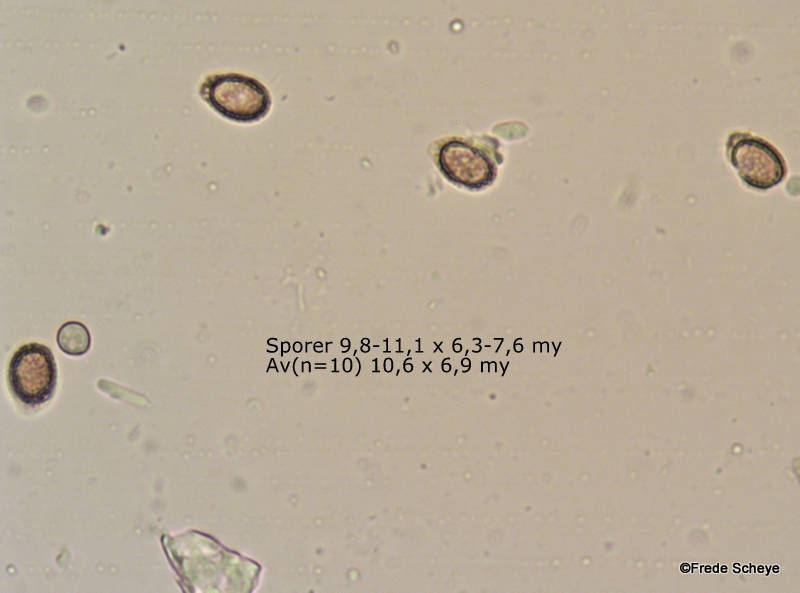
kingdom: Fungi
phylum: Basidiomycota
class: Agaricomycetes
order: Polyporales
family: Polyporaceae
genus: Ganoderma
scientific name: Ganoderma lucidum
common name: skinnende lakporesvamp
